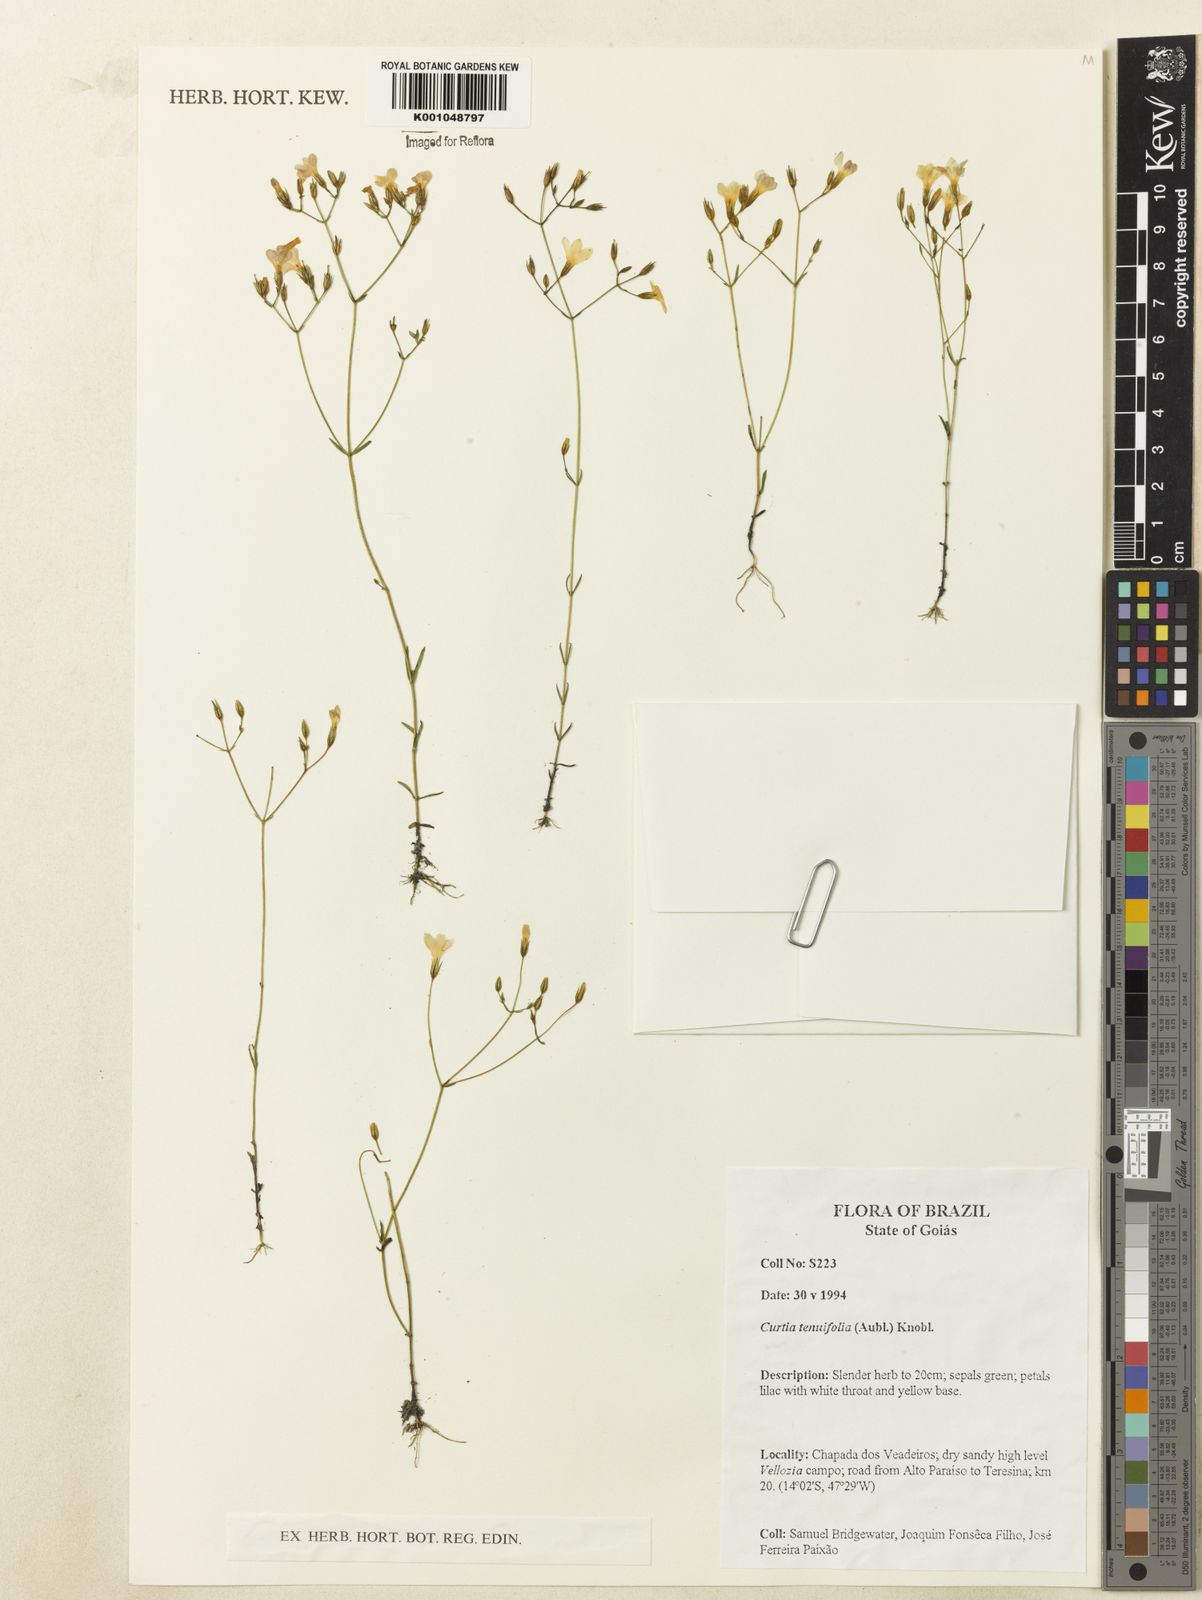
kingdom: Plantae
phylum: Tracheophyta
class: Magnoliopsida
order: Gentianales
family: Gentianaceae
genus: Curtia
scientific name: Curtia tenuifolia
